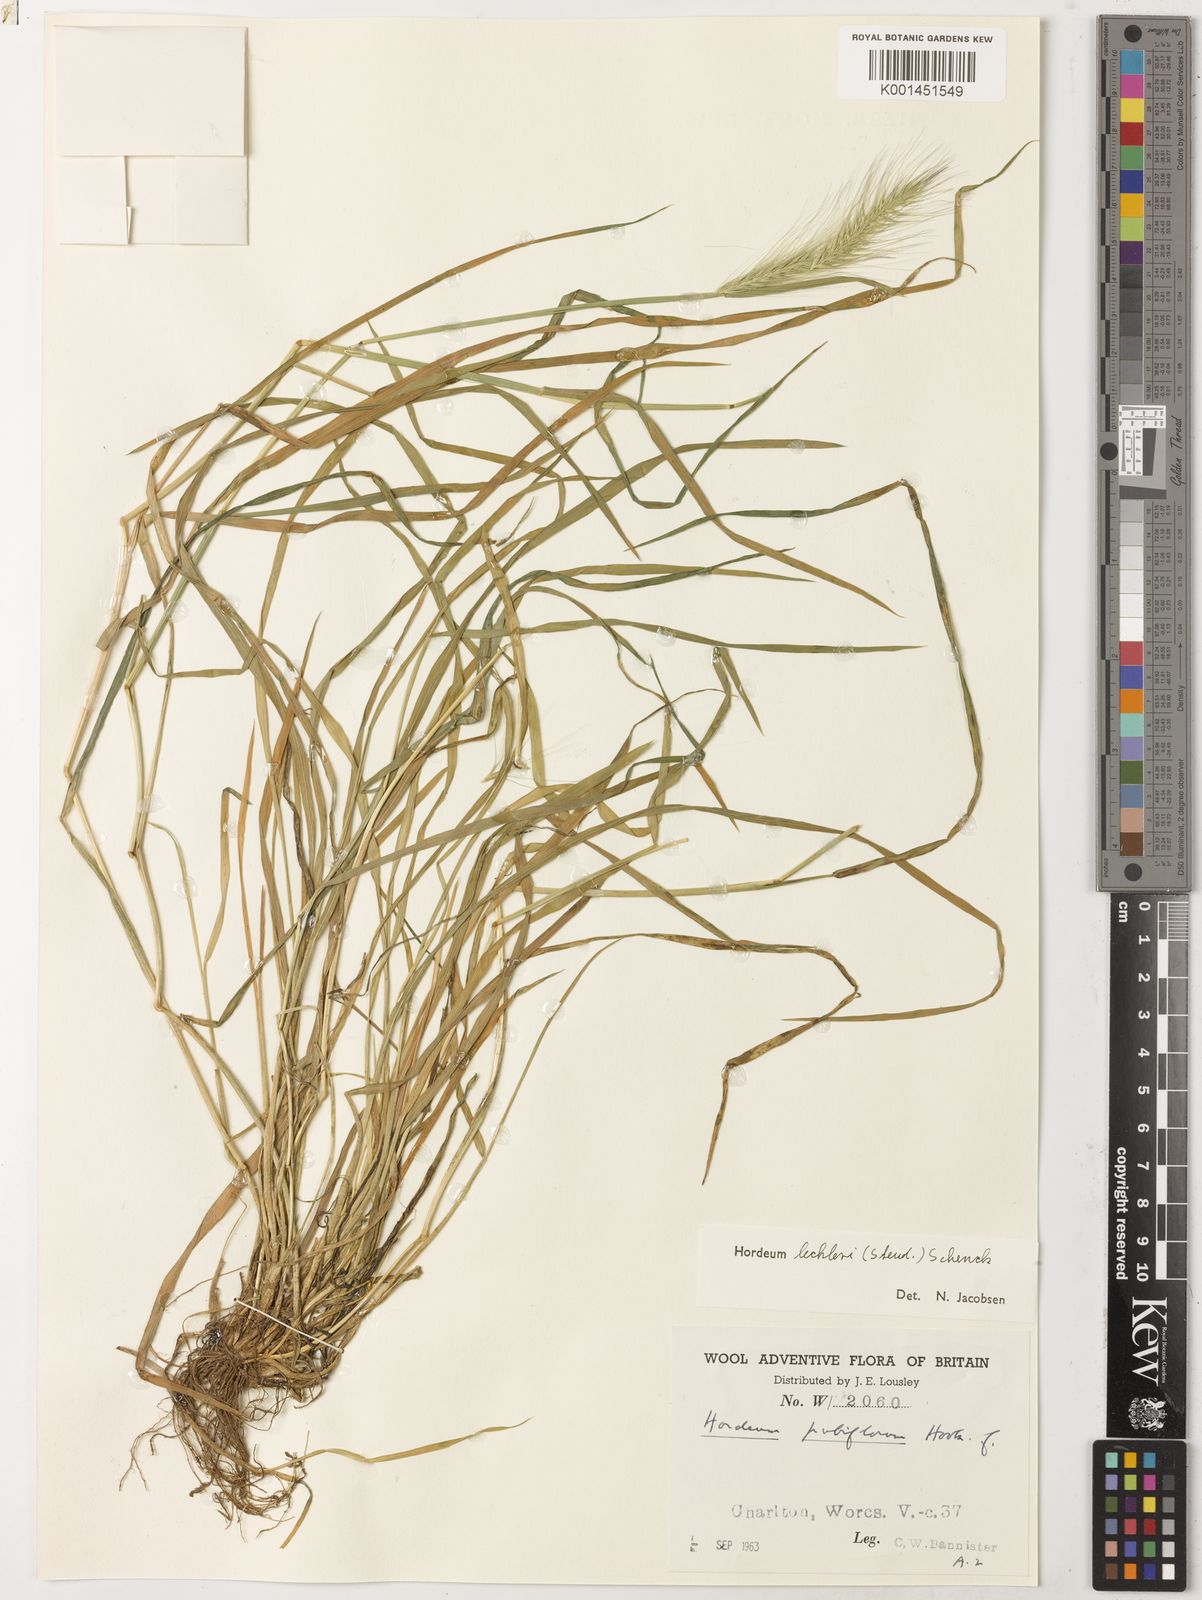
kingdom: Plantae
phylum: Tracheophyta
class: Liliopsida
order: Poales
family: Poaceae
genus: Hordeum
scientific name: Hordeum lechleri
